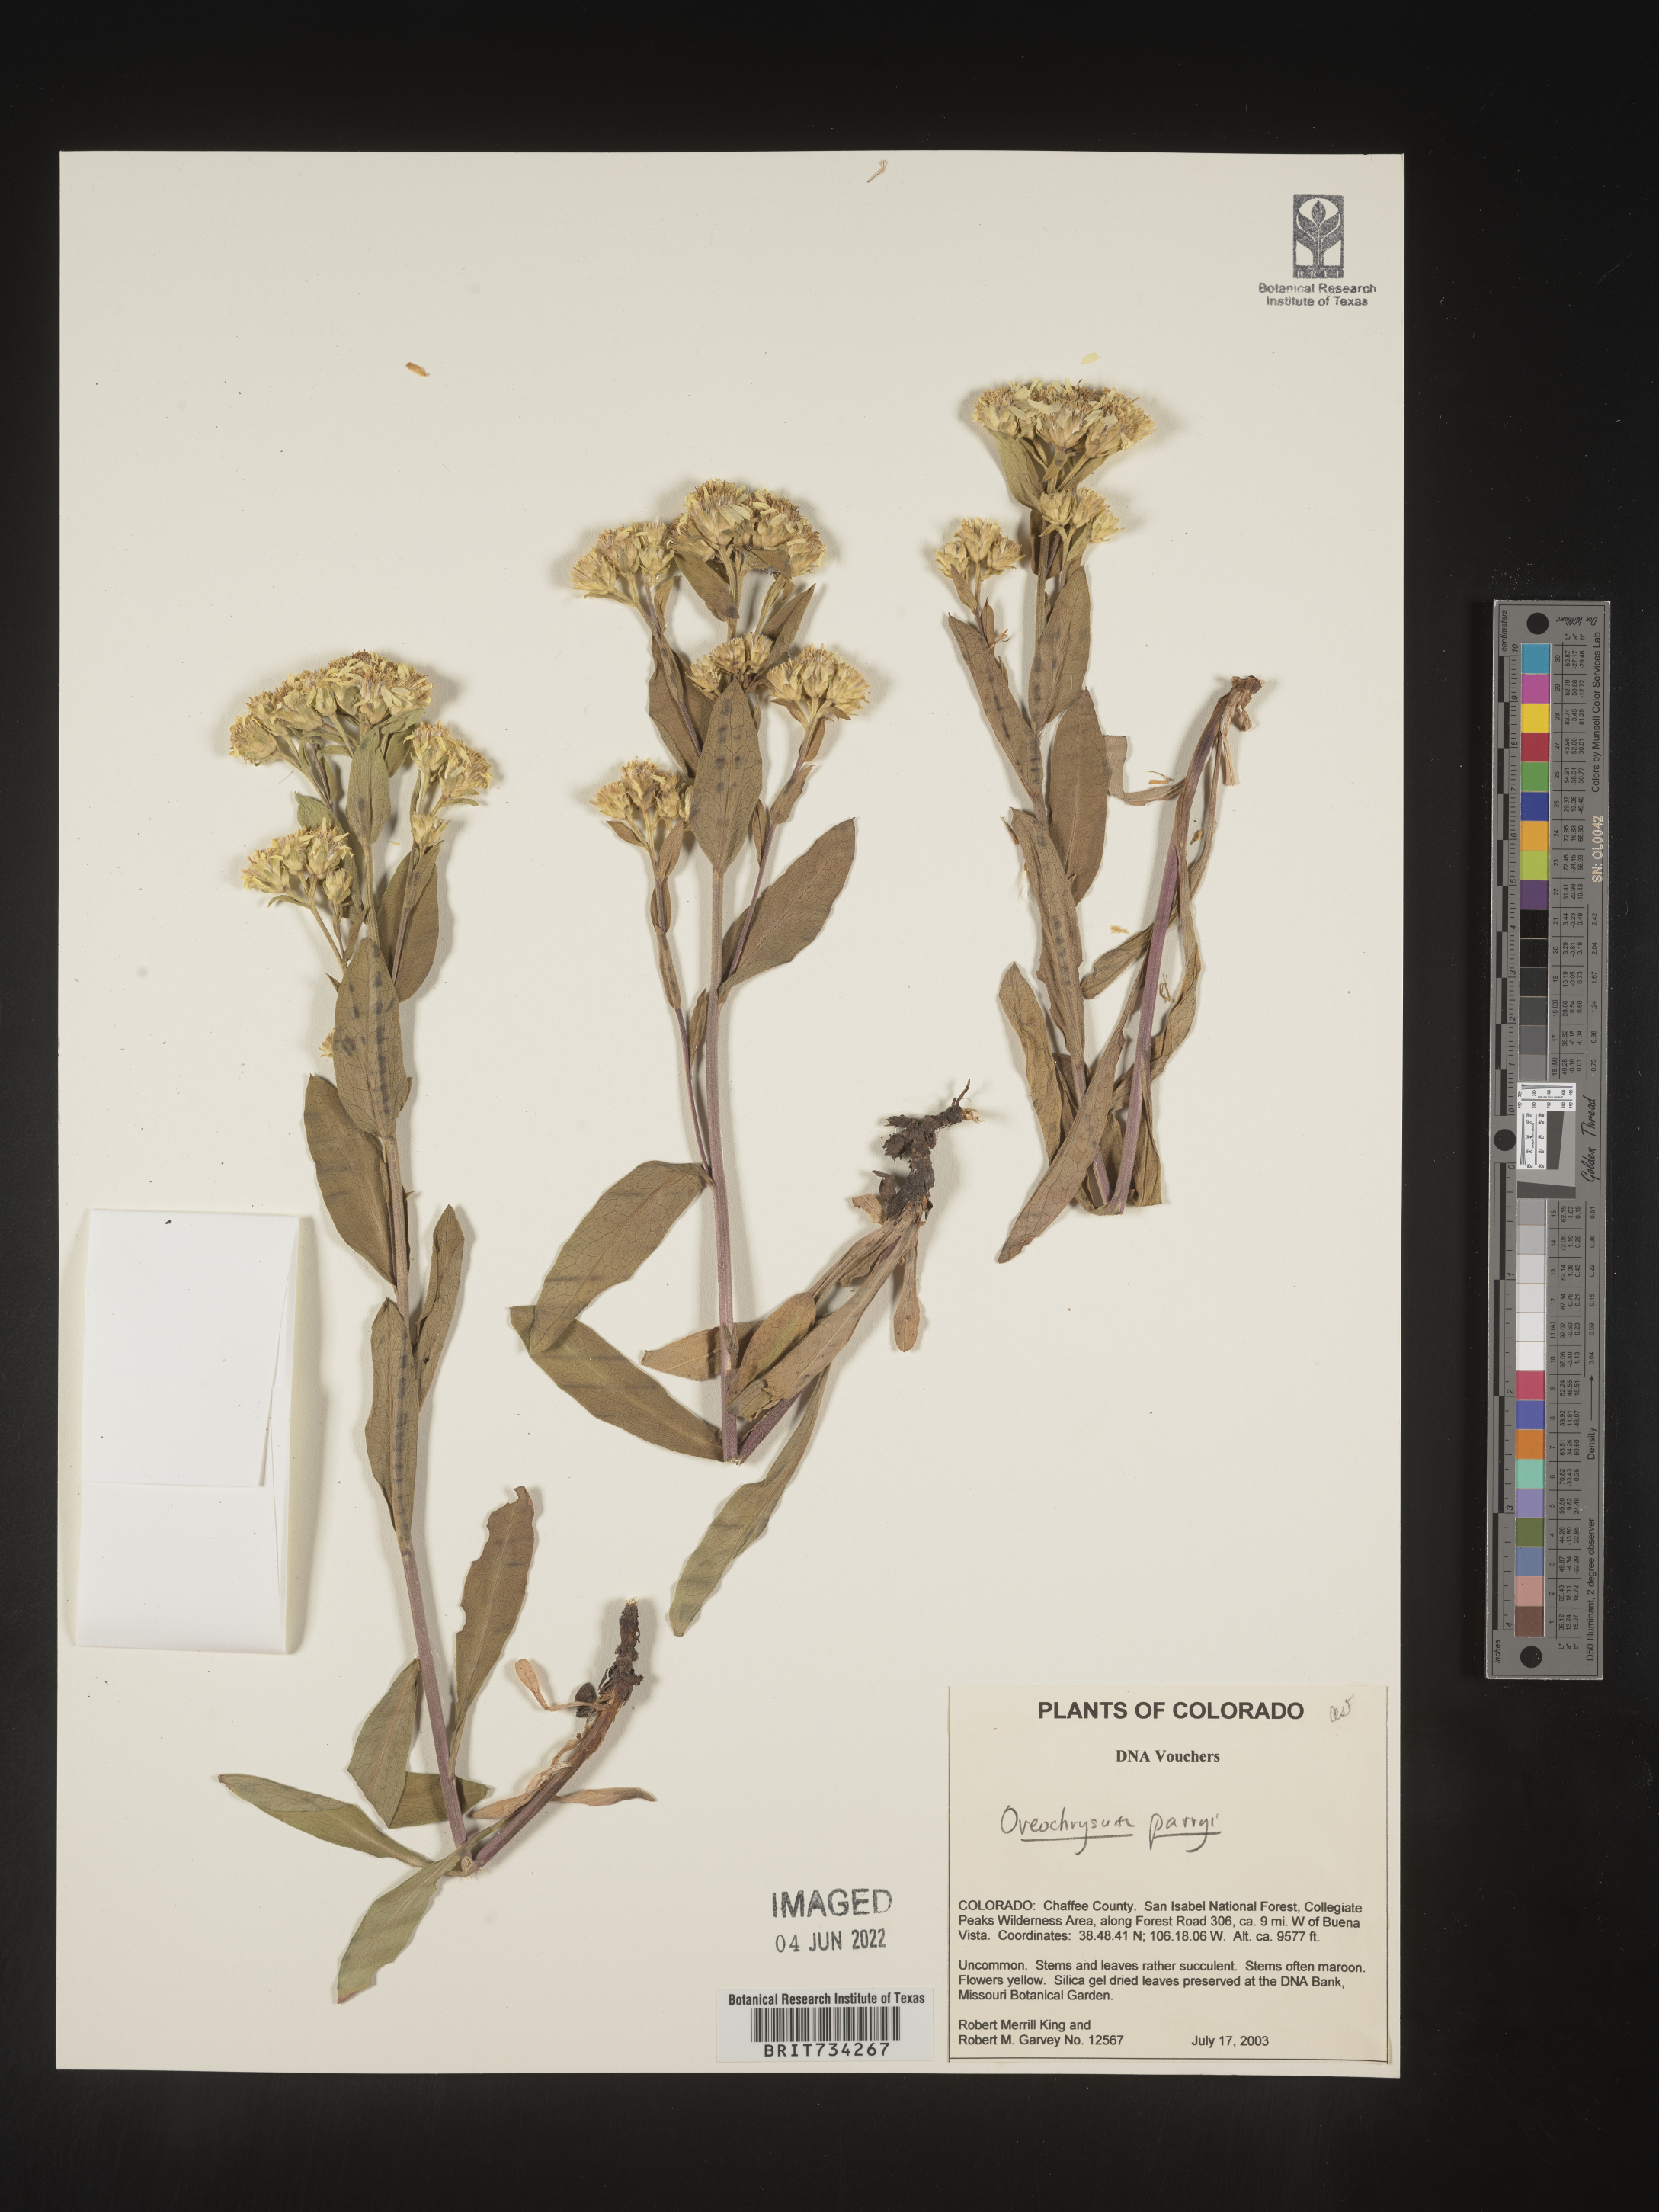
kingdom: Plantae
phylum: Tracheophyta
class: Magnoliopsida
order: Asterales
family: Asteraceae
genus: Oreochrysum
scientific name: Oreochrysum parryi
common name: Parry's goldenweed
